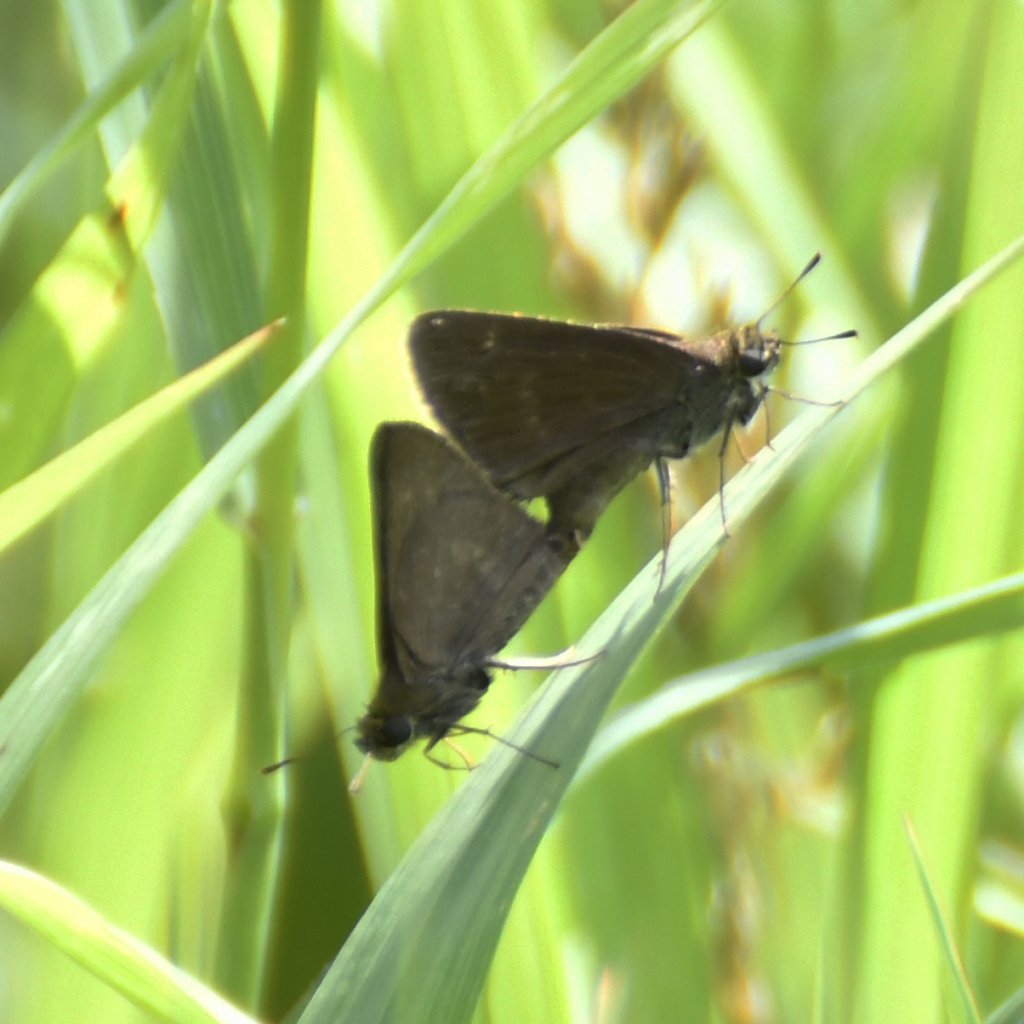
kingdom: Animalia
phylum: Arthropoda
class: Insecta
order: Lepidoptera
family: Hesperiidae
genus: Euphyes
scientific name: Euphyes vestris
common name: Dun Skipper
